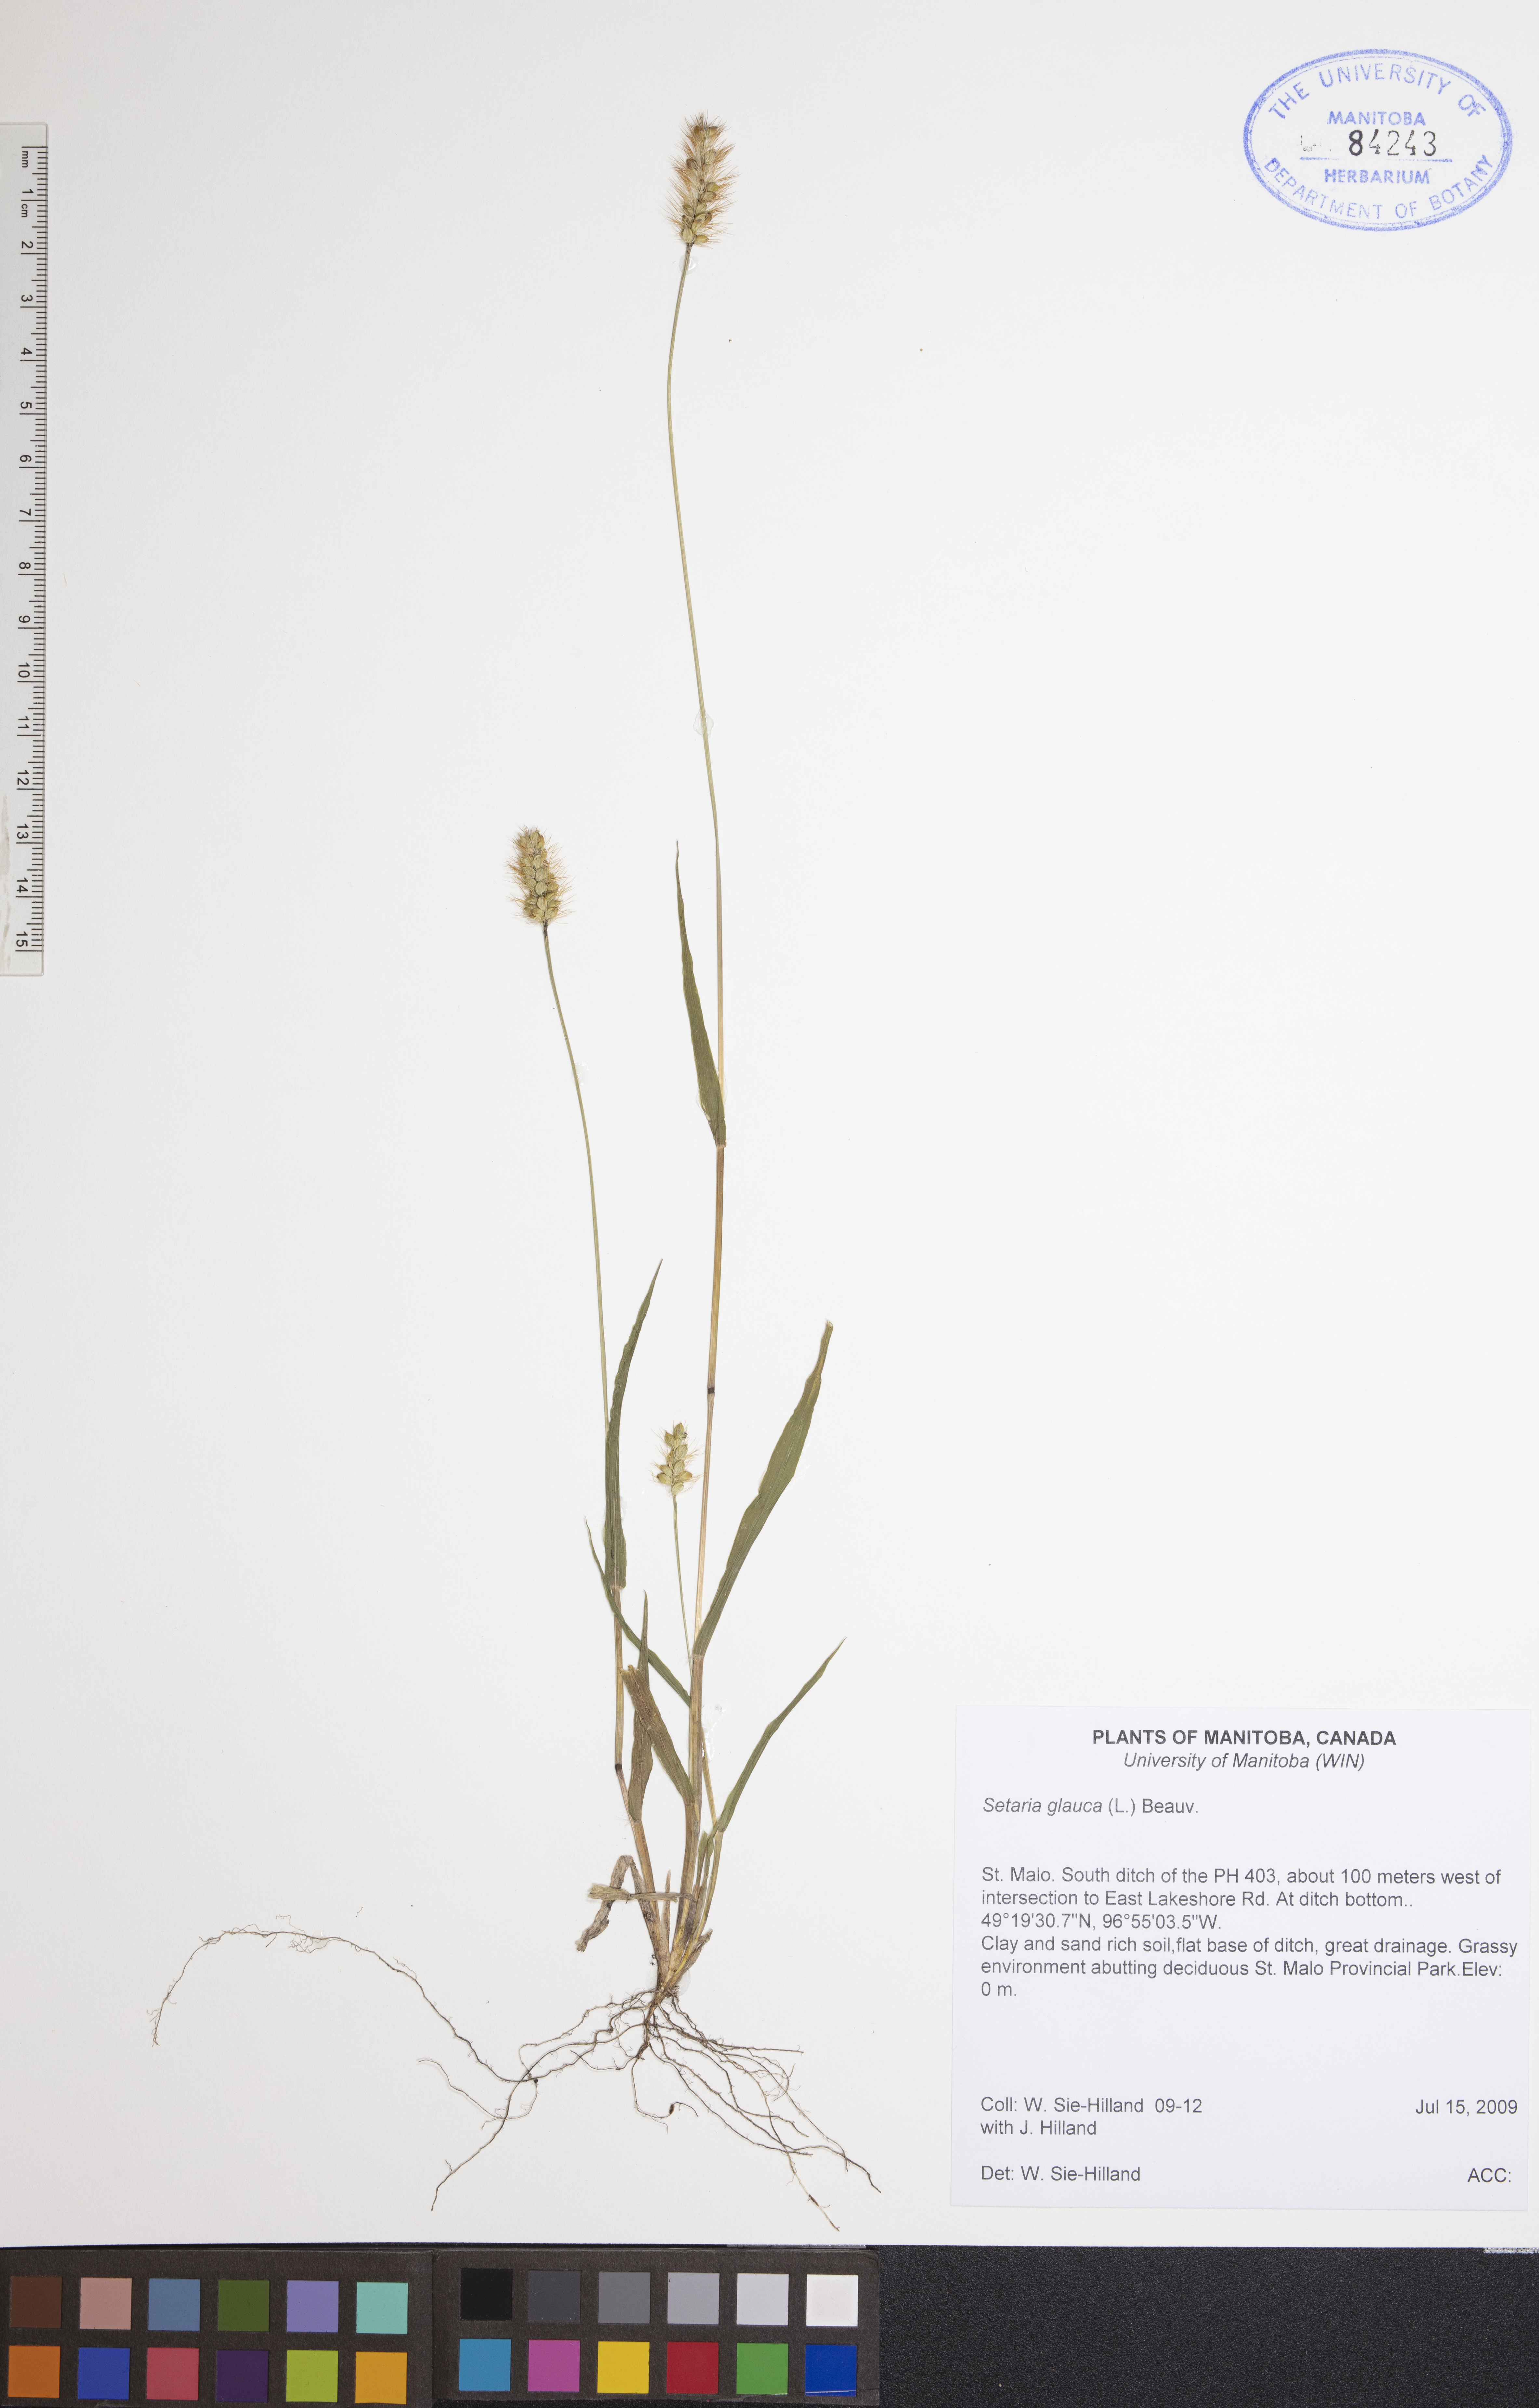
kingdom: Plantae
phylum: Tracheophyta
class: Liliopsida
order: Poales
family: Poaceae
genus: Cenchrus
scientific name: Cenchrus americanus
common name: Pearl millet
